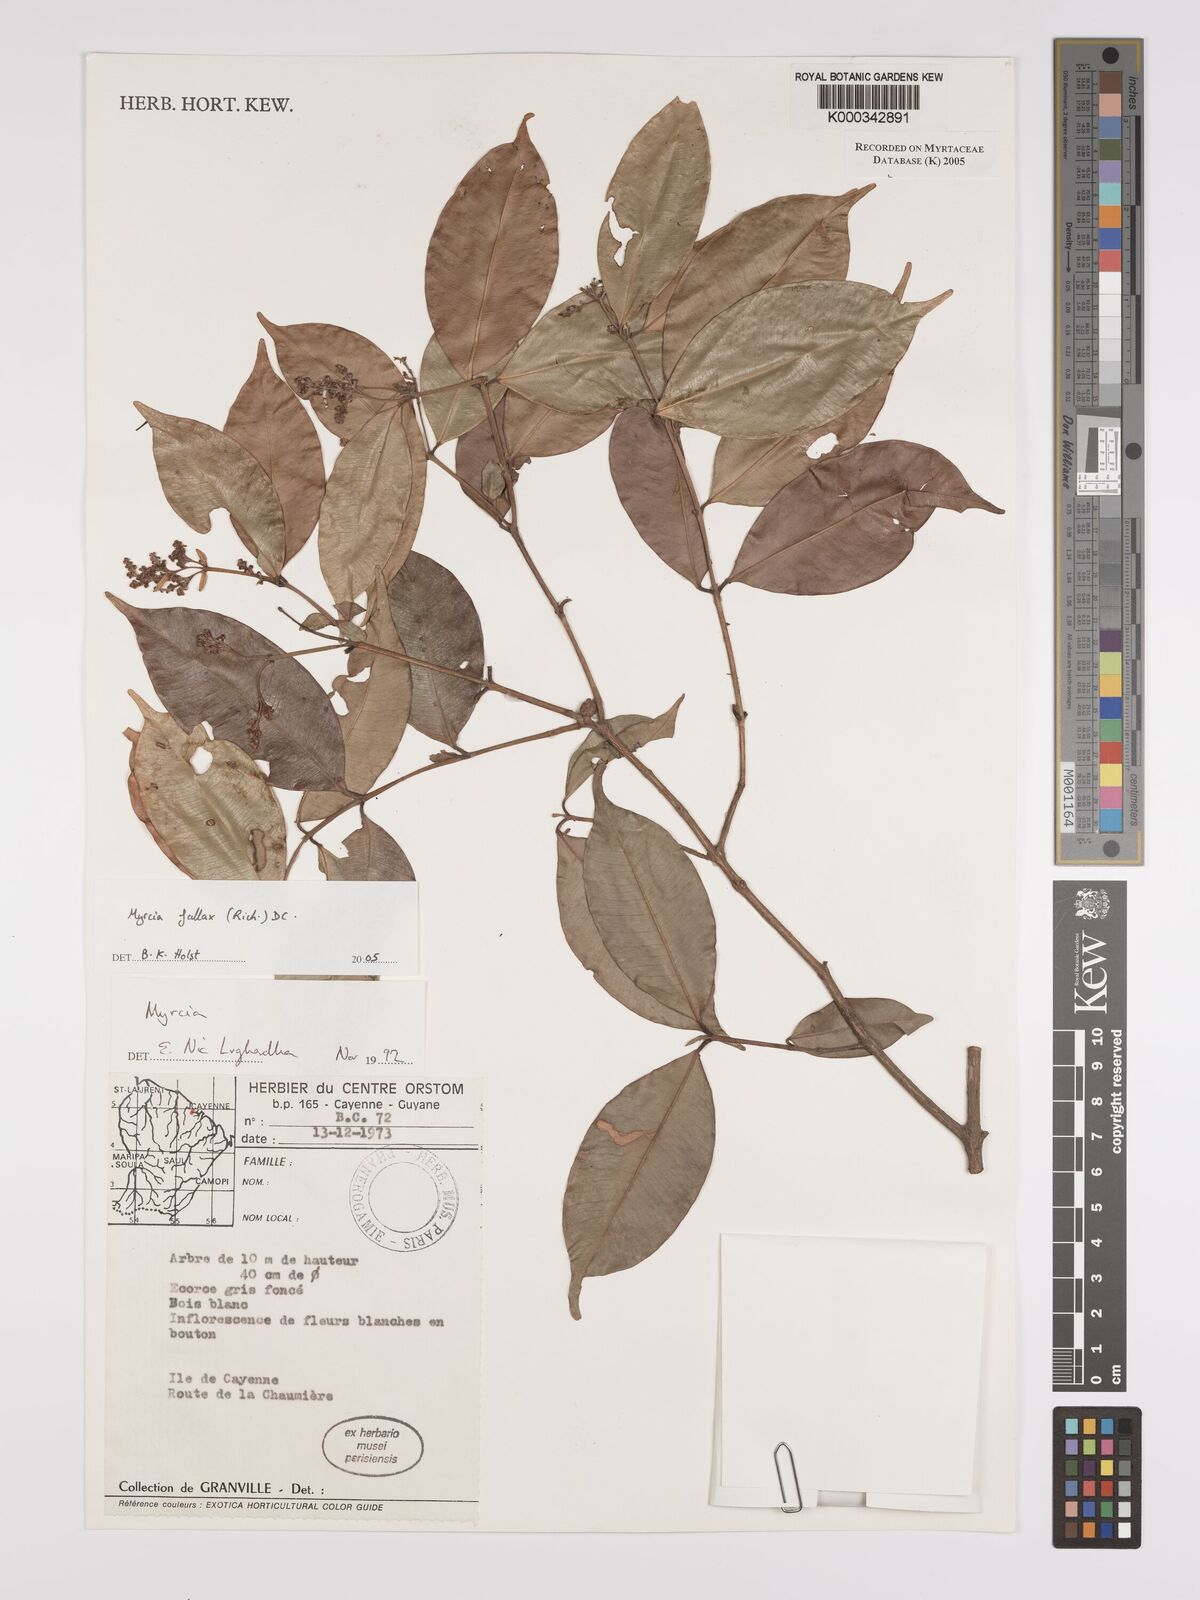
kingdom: Plantae
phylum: Tracheophyta
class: Magnoliopsida
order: Myrtales
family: Myrtaceae
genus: Myrcia
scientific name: Myrcia splendens
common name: Surinam cherry
